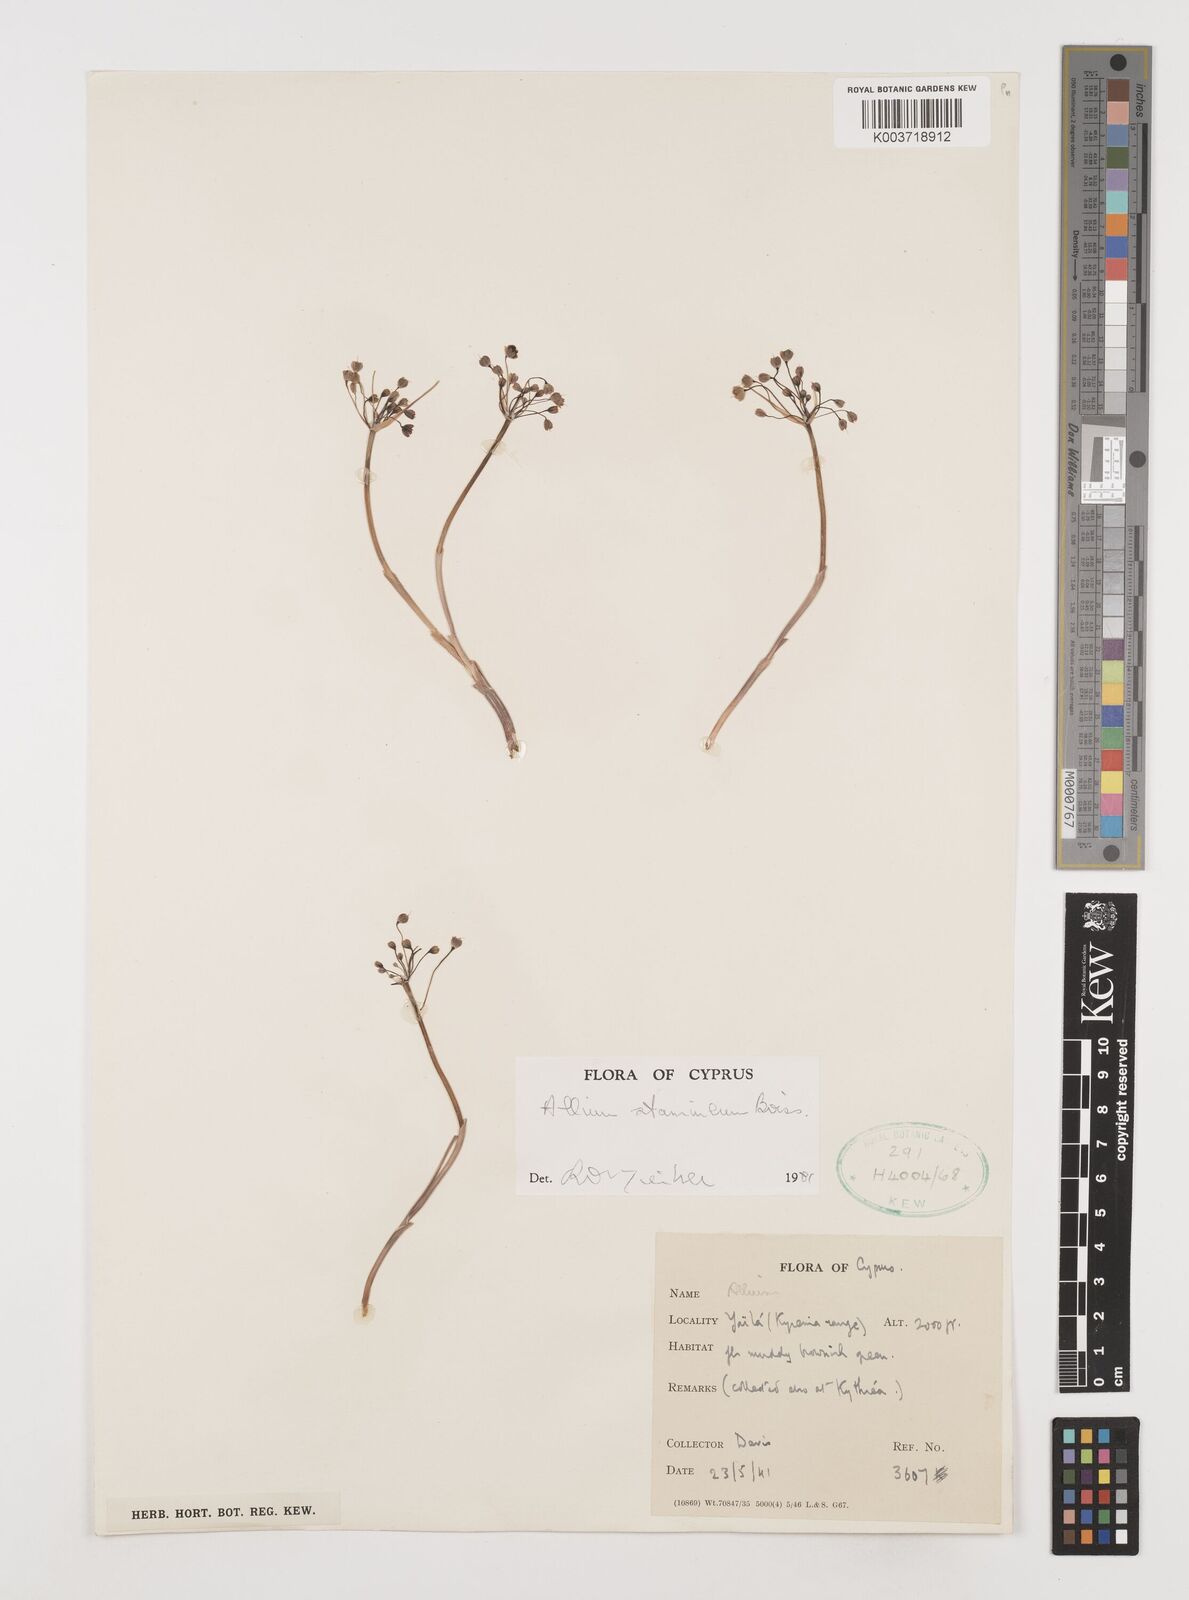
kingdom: Plantae
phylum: Tracheophyta
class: Liliopsida
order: Asparagales
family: Amaryllidaceae
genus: Allium
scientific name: Allium stamineum
